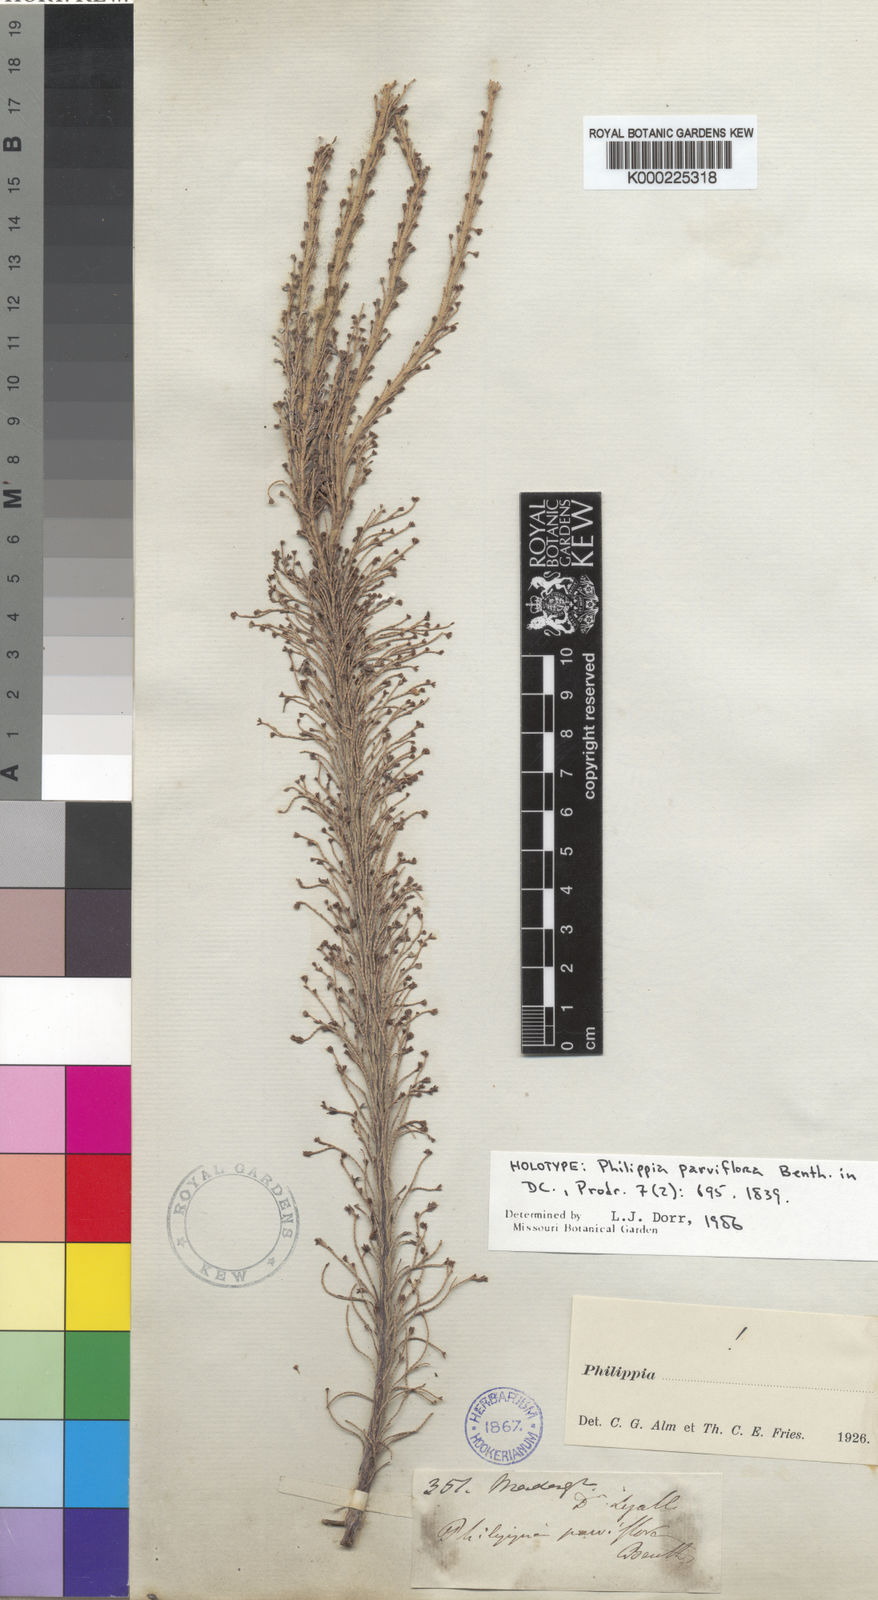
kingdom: Plantae
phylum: Tracheophyta
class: Magnoliopsida
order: Ericales
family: Ericaceae
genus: Erica
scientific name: Erica lyallii
